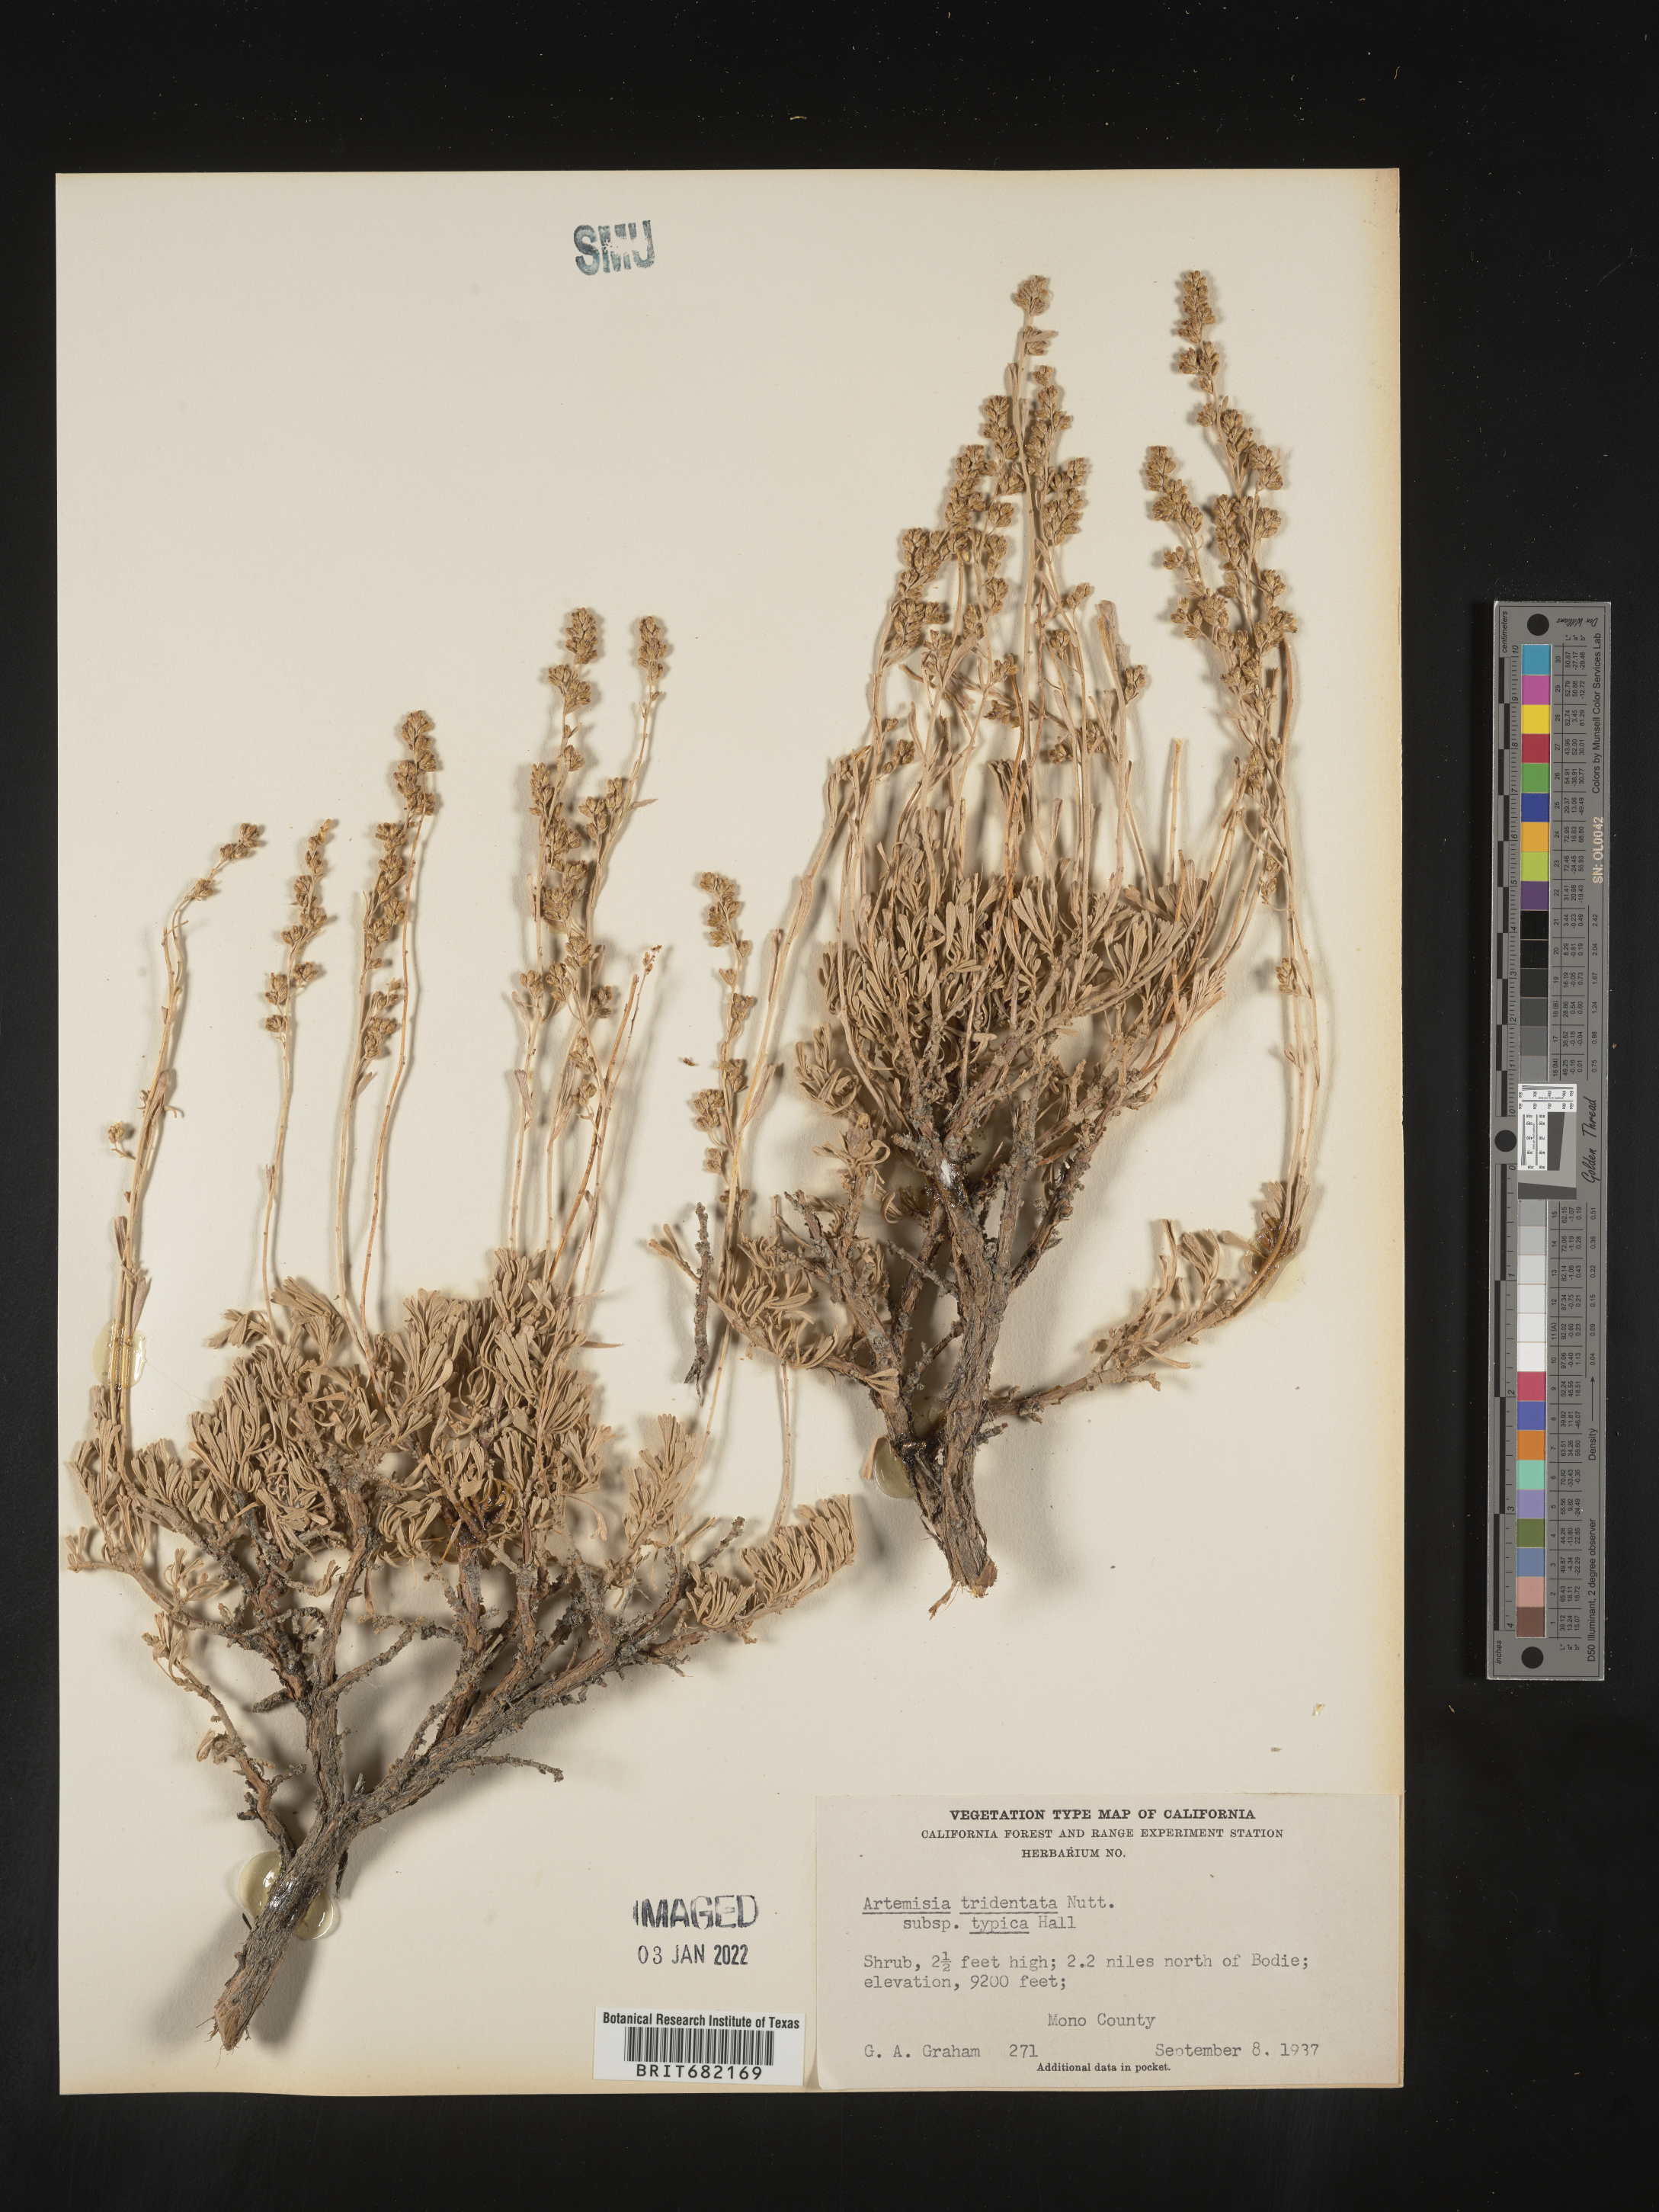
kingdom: Plantae
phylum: Tracheophyta
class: Magnoliopsida
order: Asterales
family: Asteraceae
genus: Artemisia
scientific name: Artemisia tridentata
